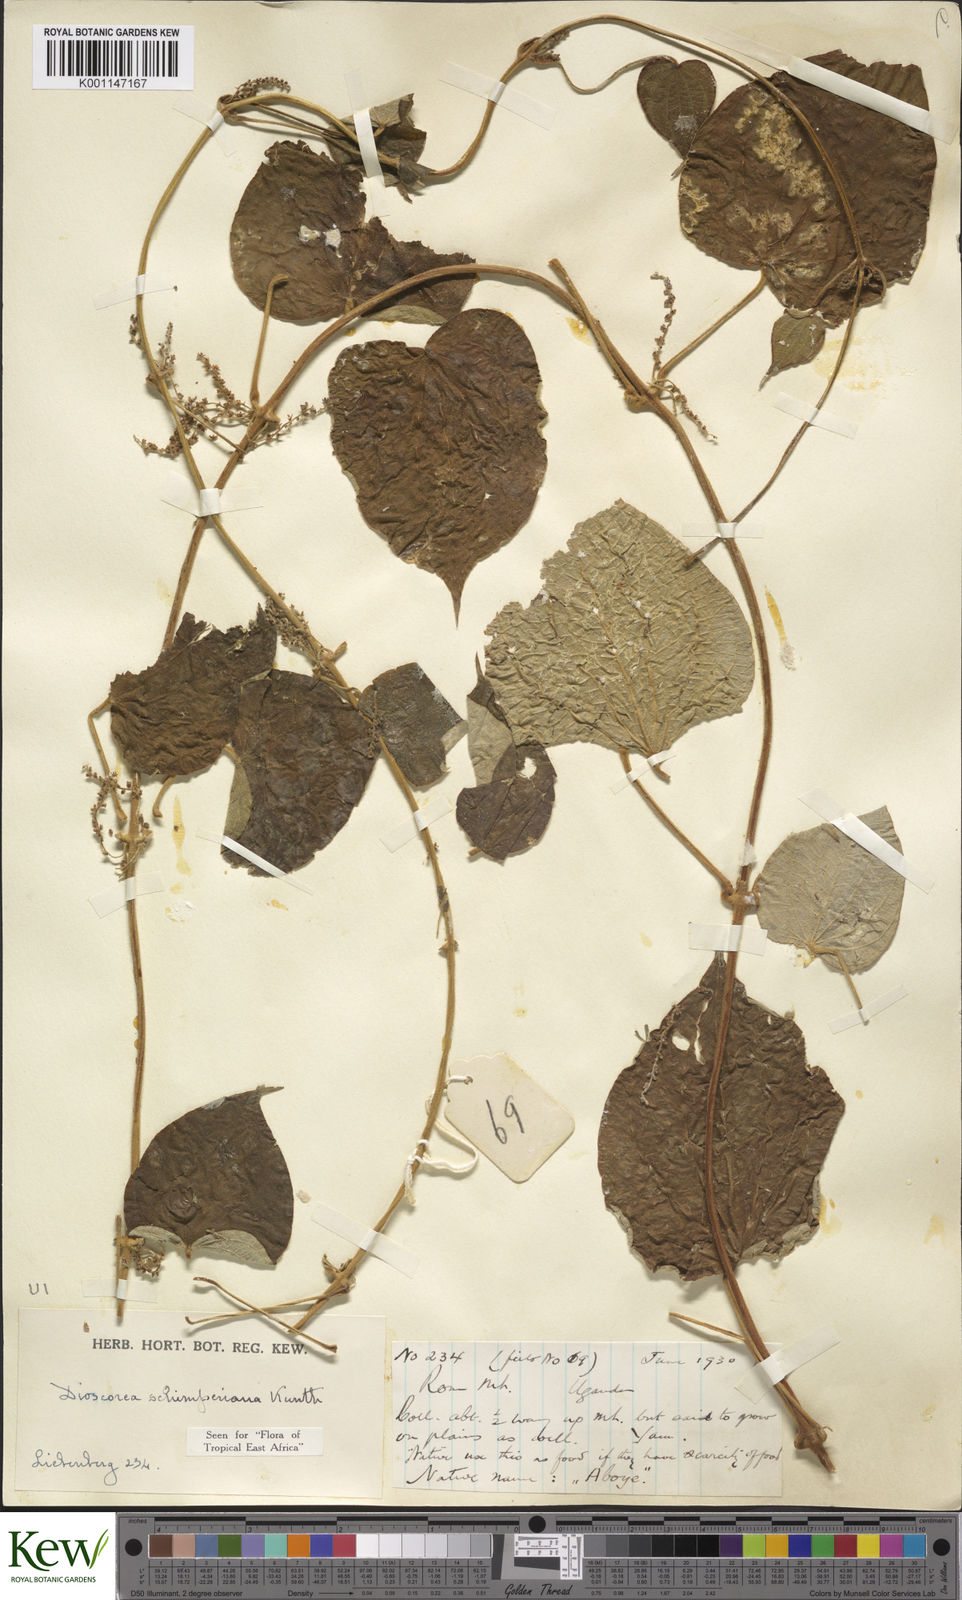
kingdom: Plantae
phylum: Tracheophyta
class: Liliopsida
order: Dioscoreales
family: Dioscoreaceae
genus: Dioscorea
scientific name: Dioscorea schimperiana
